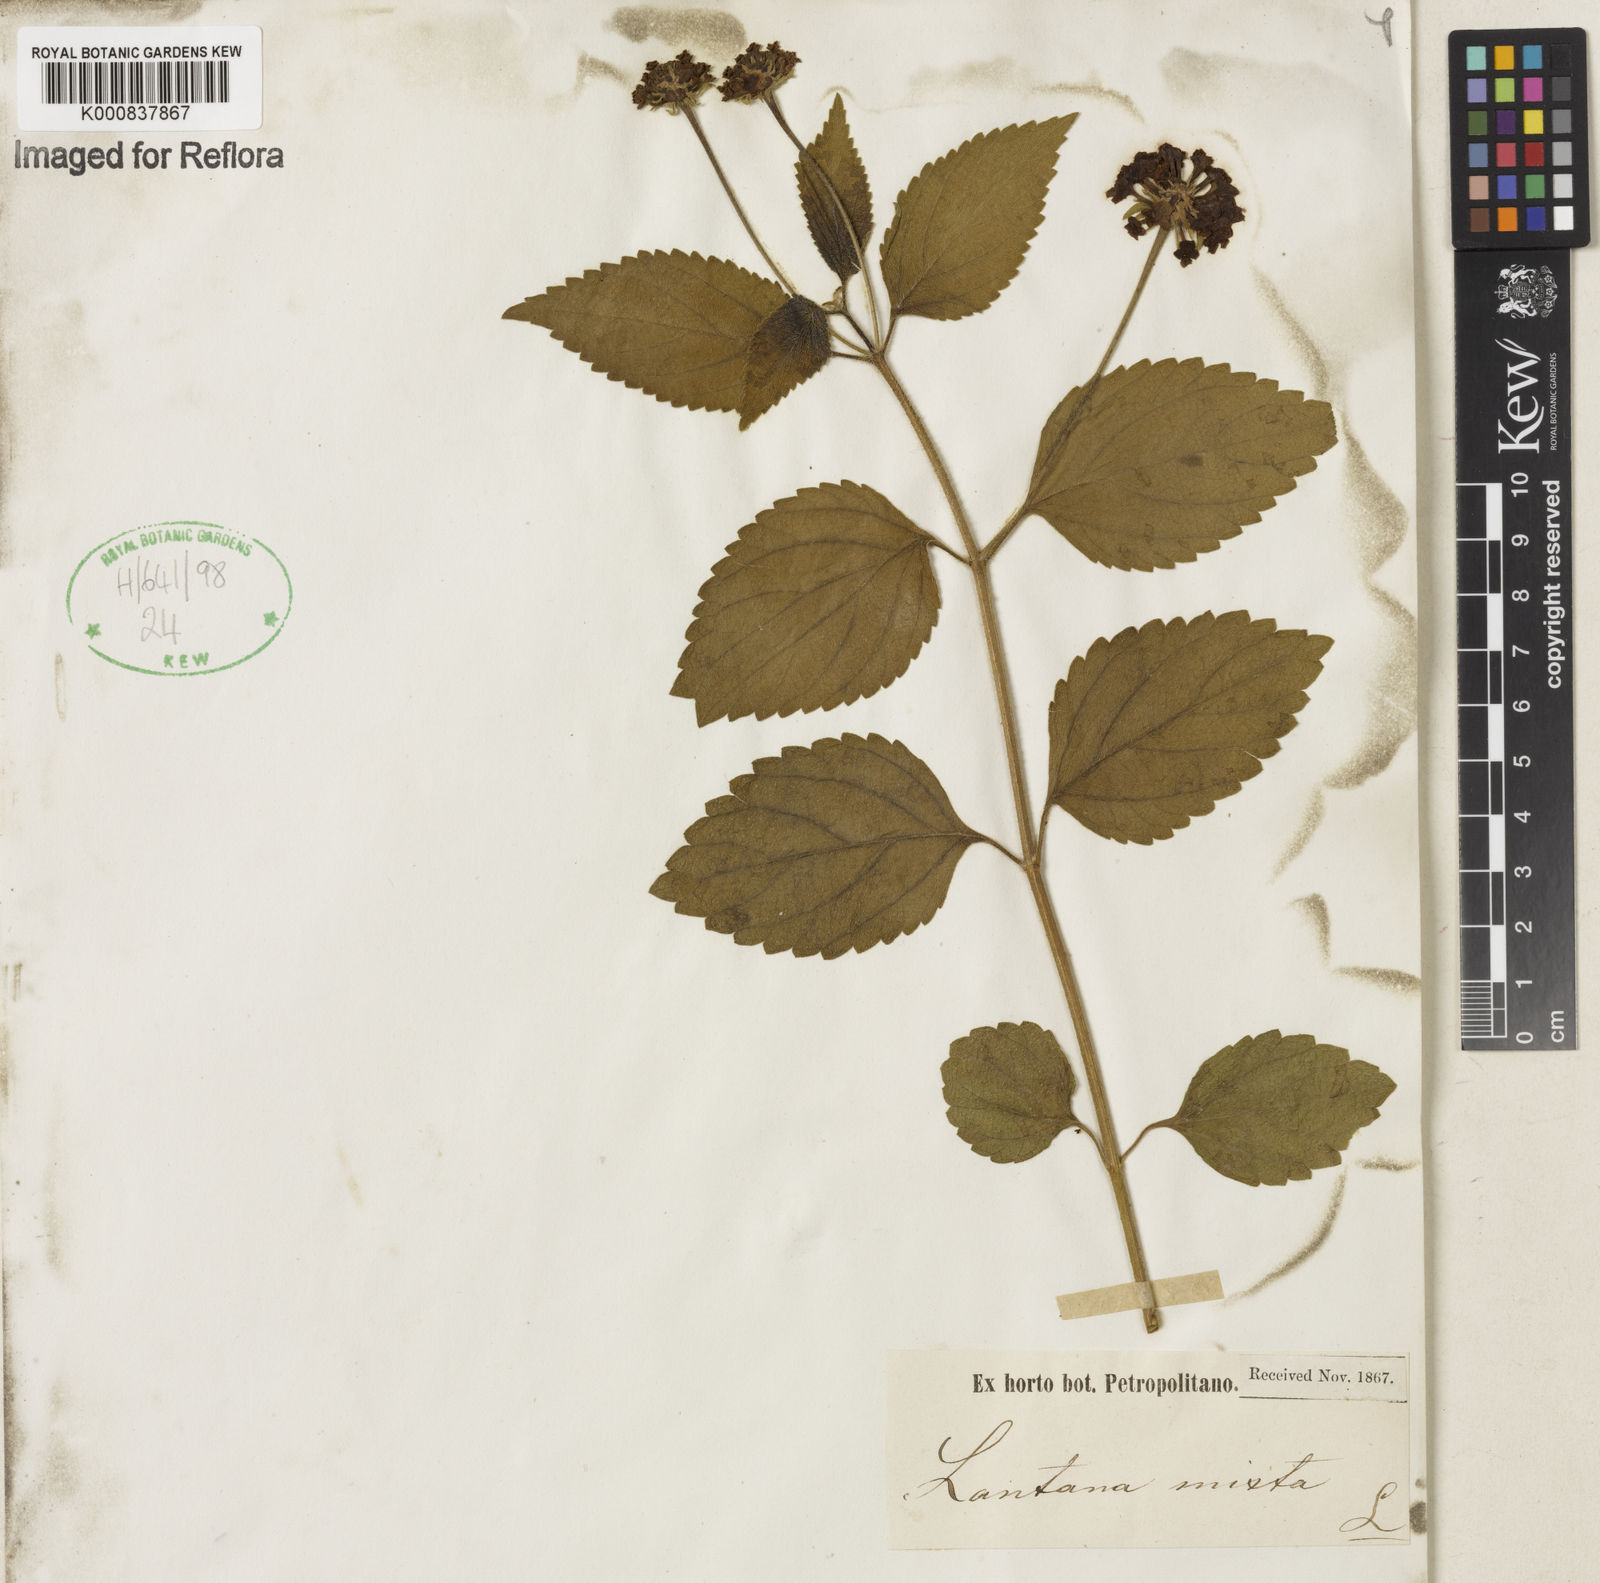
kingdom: Plantae
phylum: Tracheophyta
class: Magnoliopsida
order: Lamiales
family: Verbenaceae
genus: Lantana
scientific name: Lantana horrida
